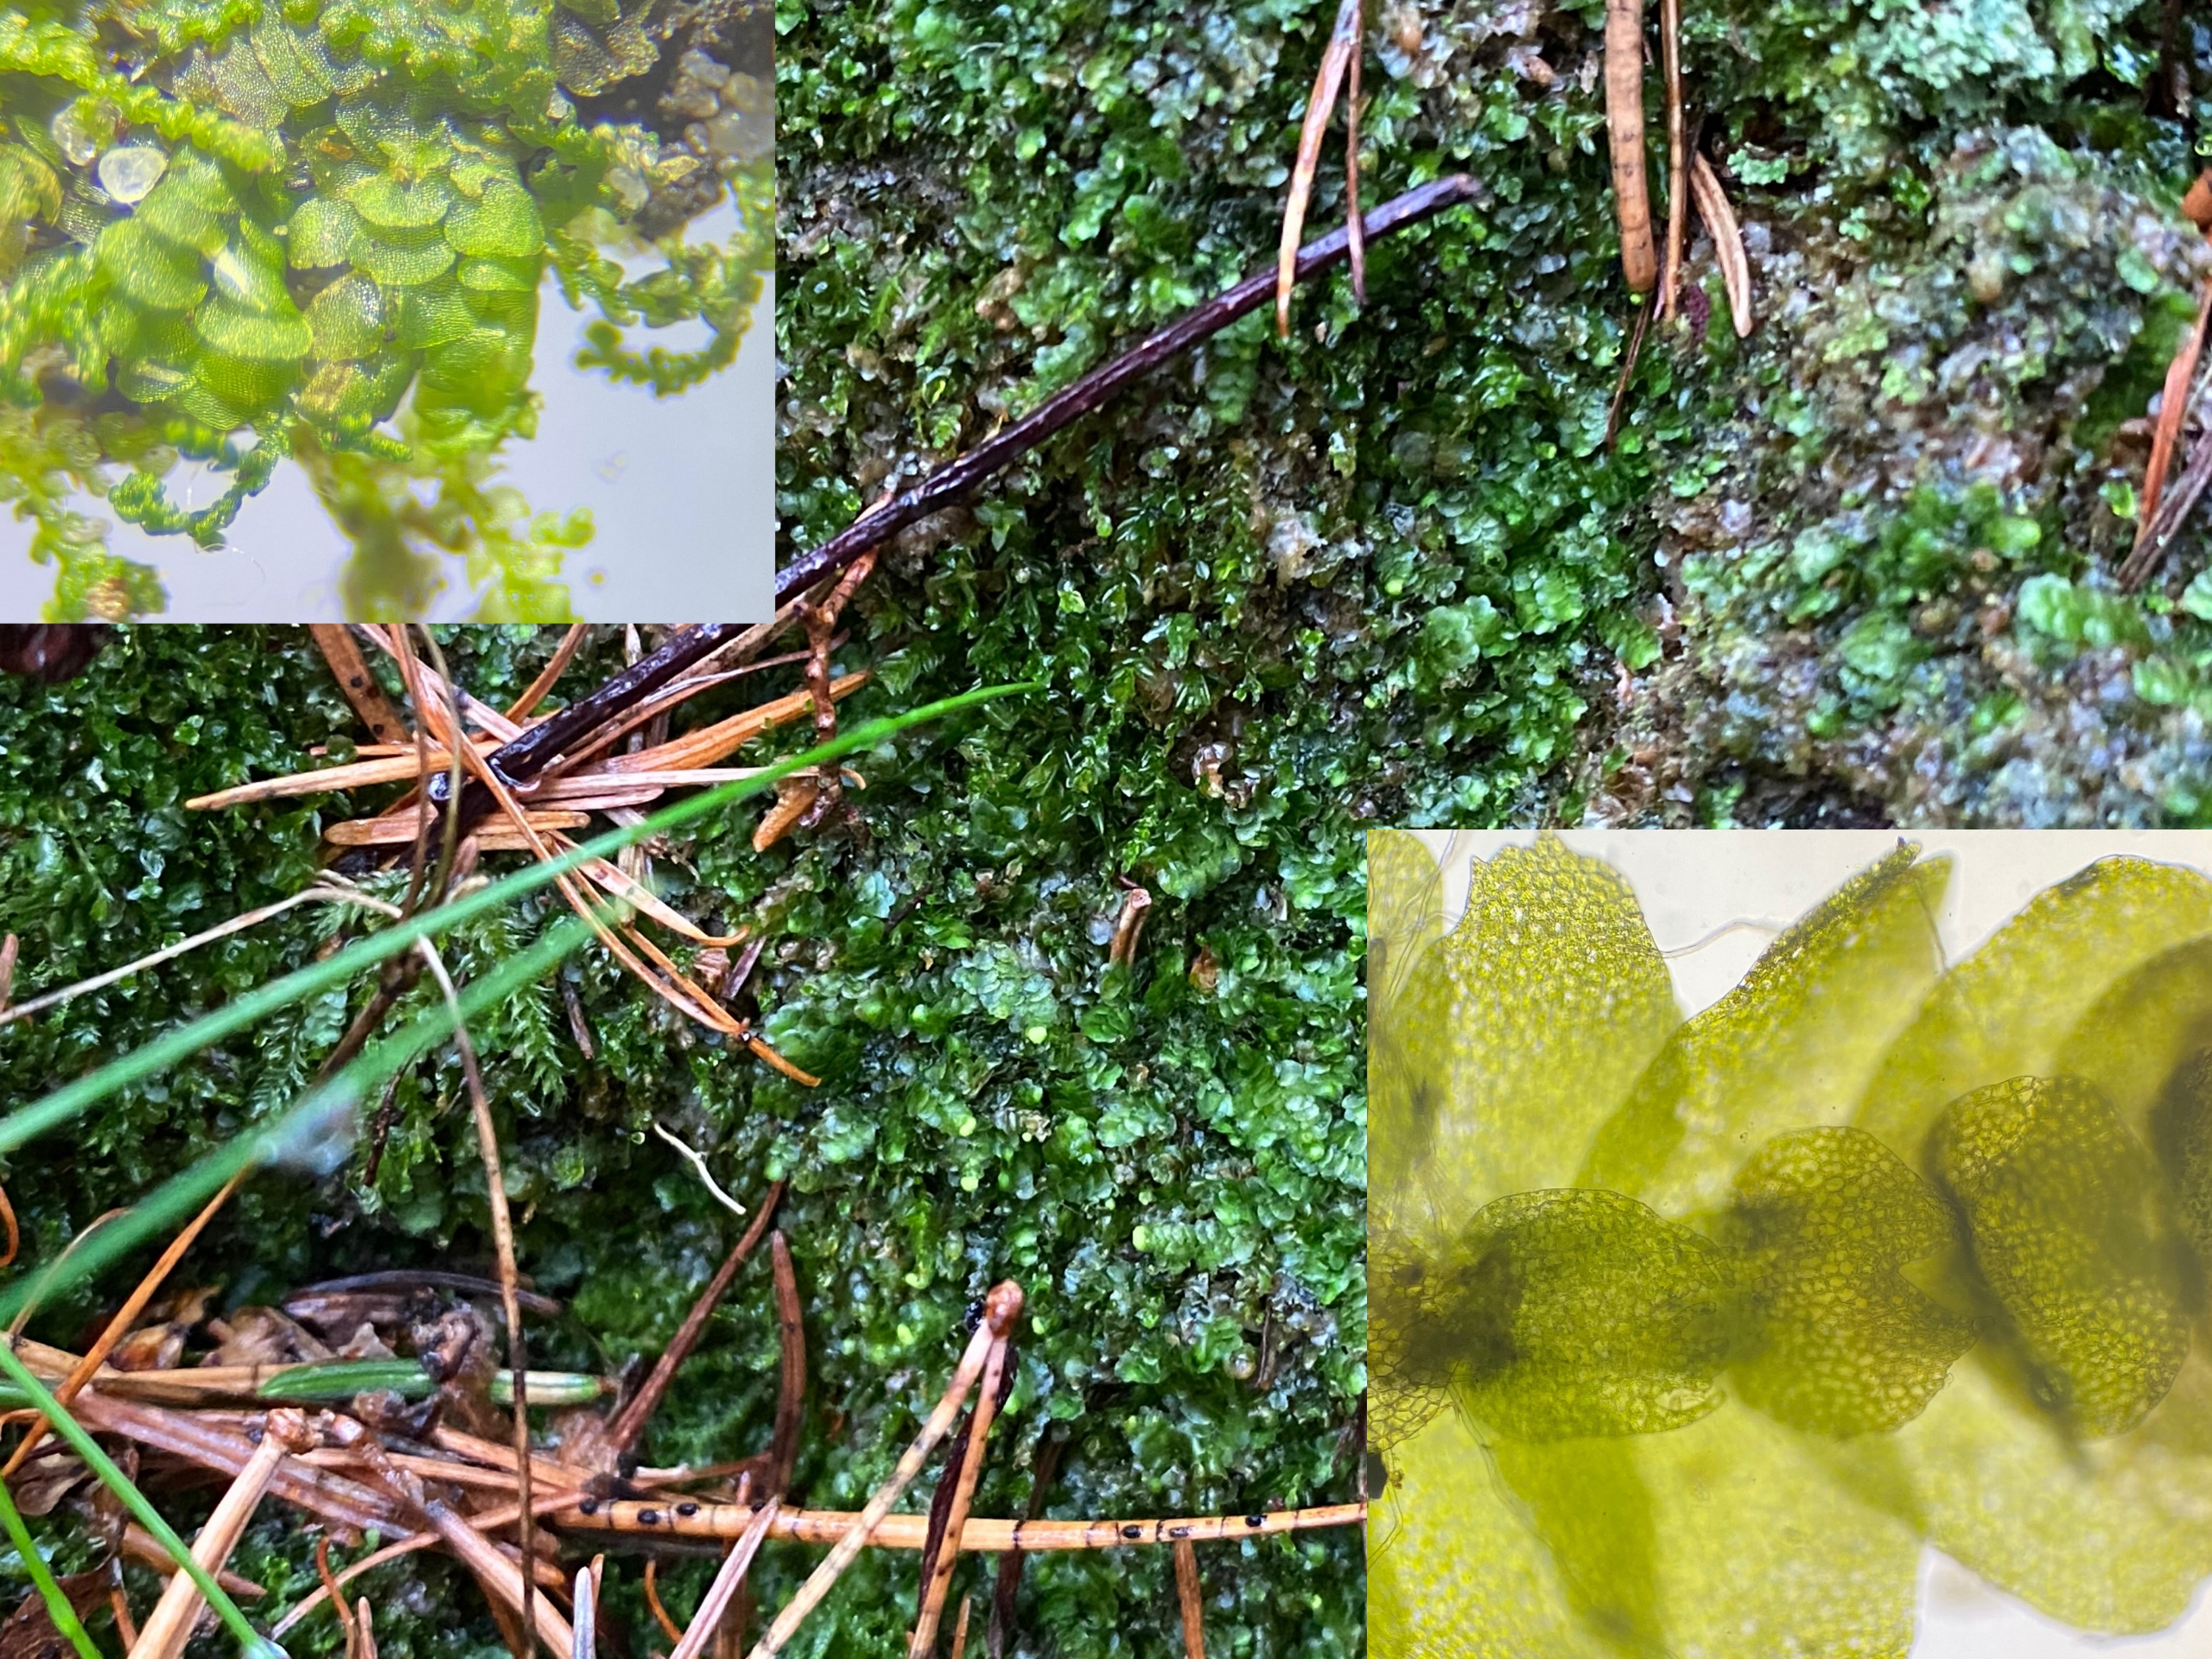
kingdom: Plantae
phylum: Marchantiophyta
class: Jungermanniopsida
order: Jungermanniales
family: Calypogeiaceae
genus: Calypogeia
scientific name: Calypogeia integristipula
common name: Udelt sækmos
